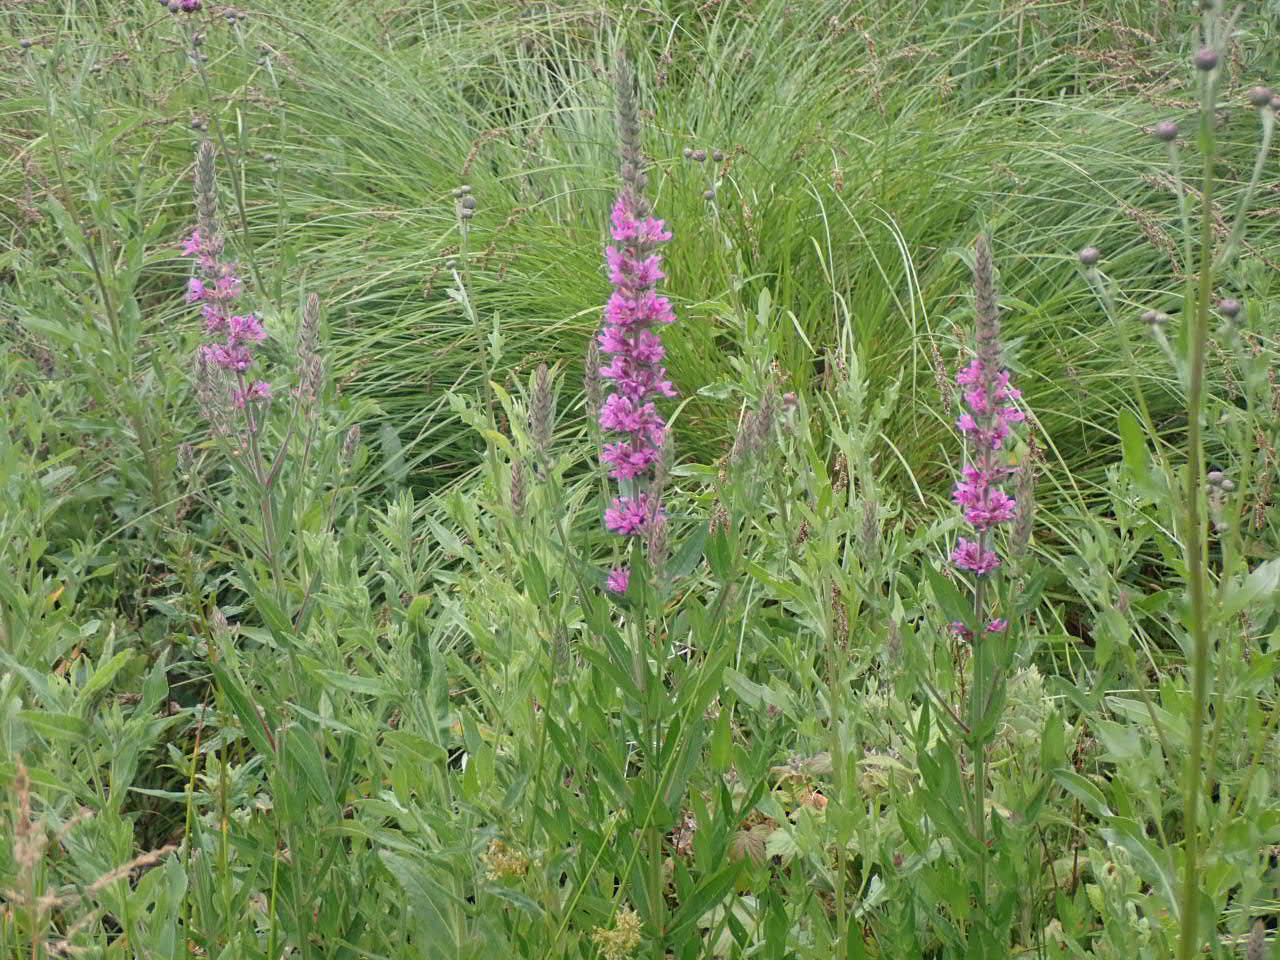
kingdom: Plantae
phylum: Tracheophyta
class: Magnoliopsida
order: Myrtales
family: Lythraceae
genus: Lythrum
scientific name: Lythrum salicaria
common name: Kattehale
